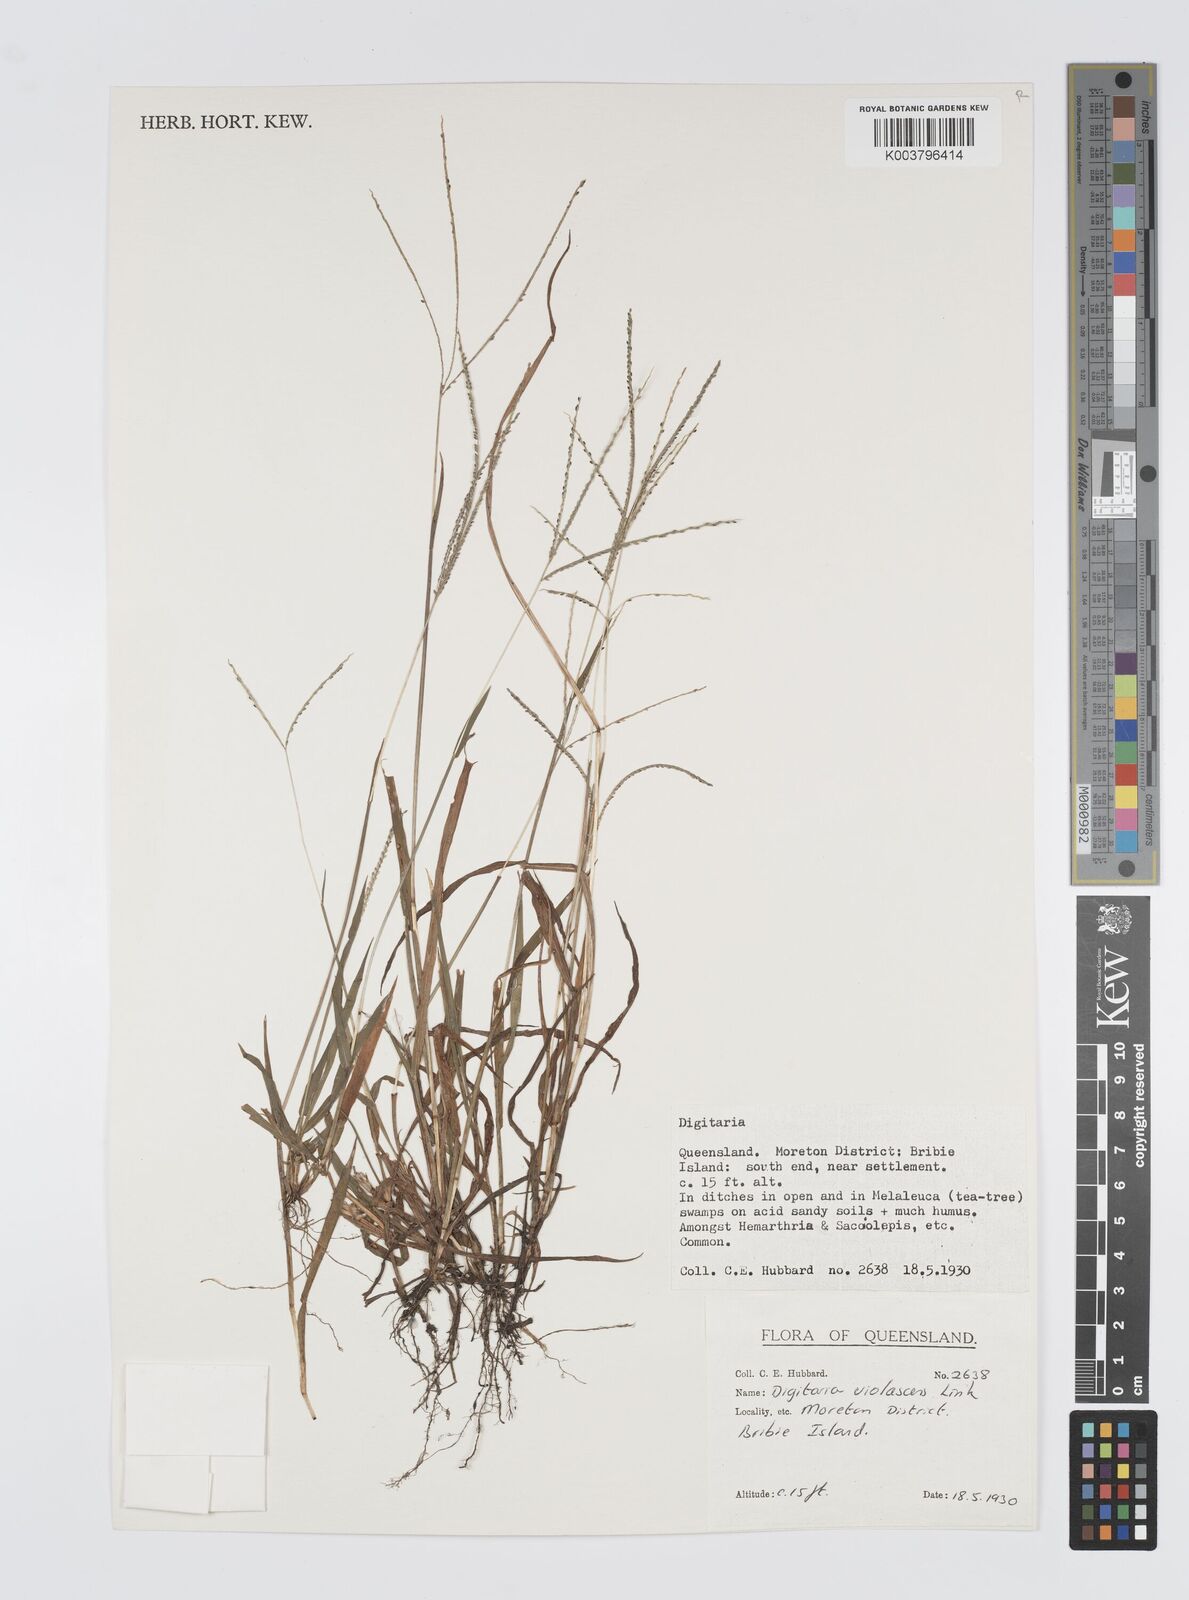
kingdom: Plantae
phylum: Tracheophyta
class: Liliopsida
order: Poales
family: Poaceae
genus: Digitaria
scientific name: Digitaria violascens
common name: Violet crabgrass
